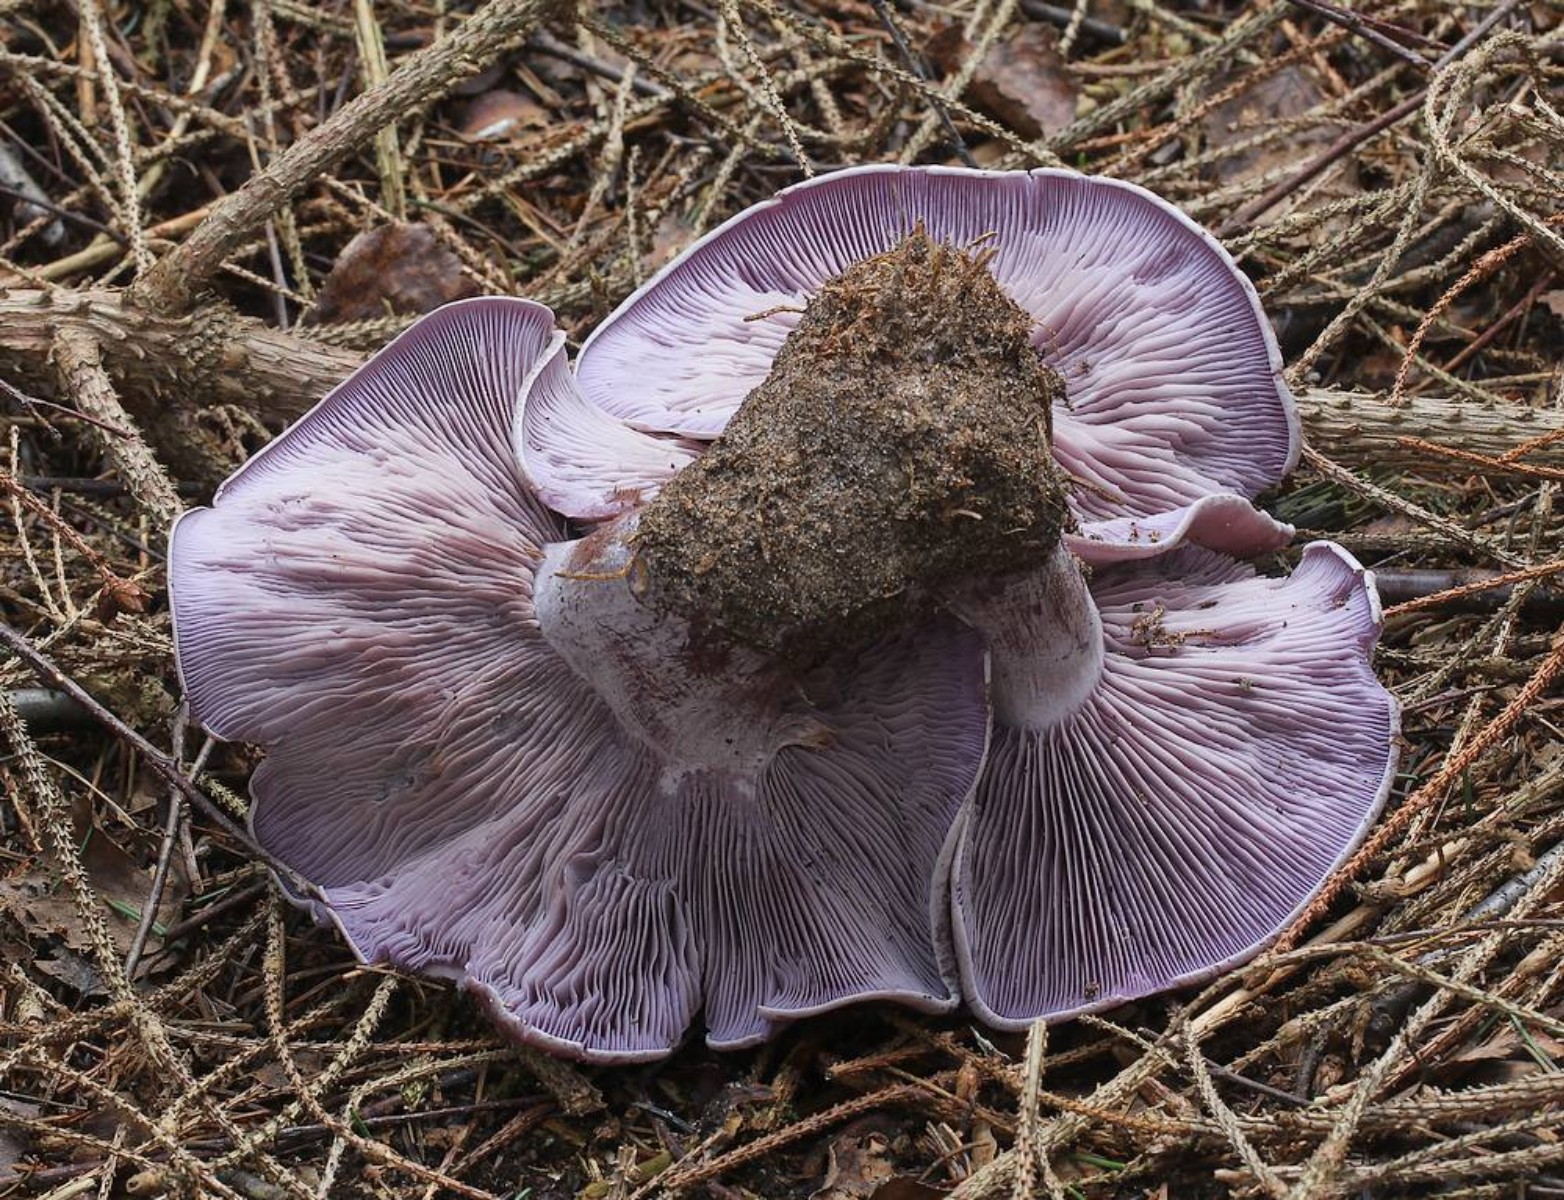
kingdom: Fungi
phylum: Basidiomycota
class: Agaricomycetes
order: Agaricales
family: Tricholomataceae
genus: Lepista
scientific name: Lepista nuda
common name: violet hekseringshat
